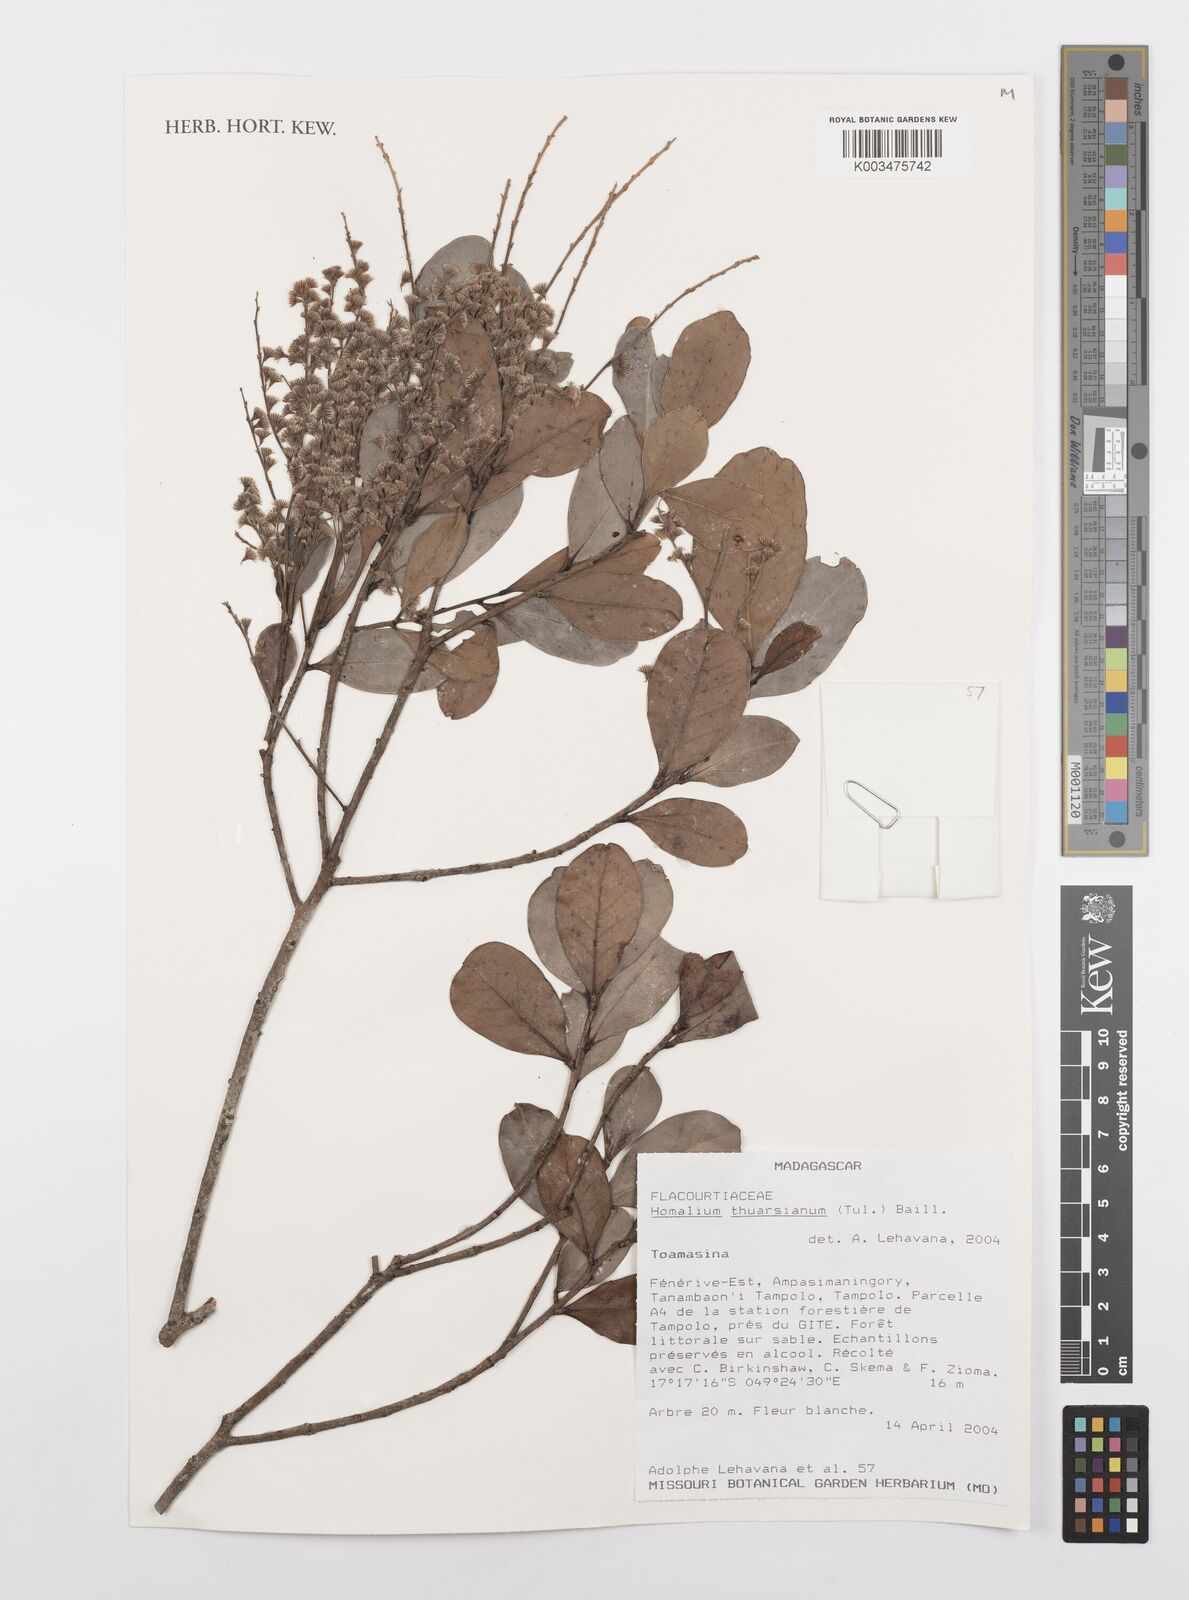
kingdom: Plantae
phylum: Tracheophyta
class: Magnoliopsida
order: Malpighiales
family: Salicaceae
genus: Homalium
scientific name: Homalium thuarsianum
